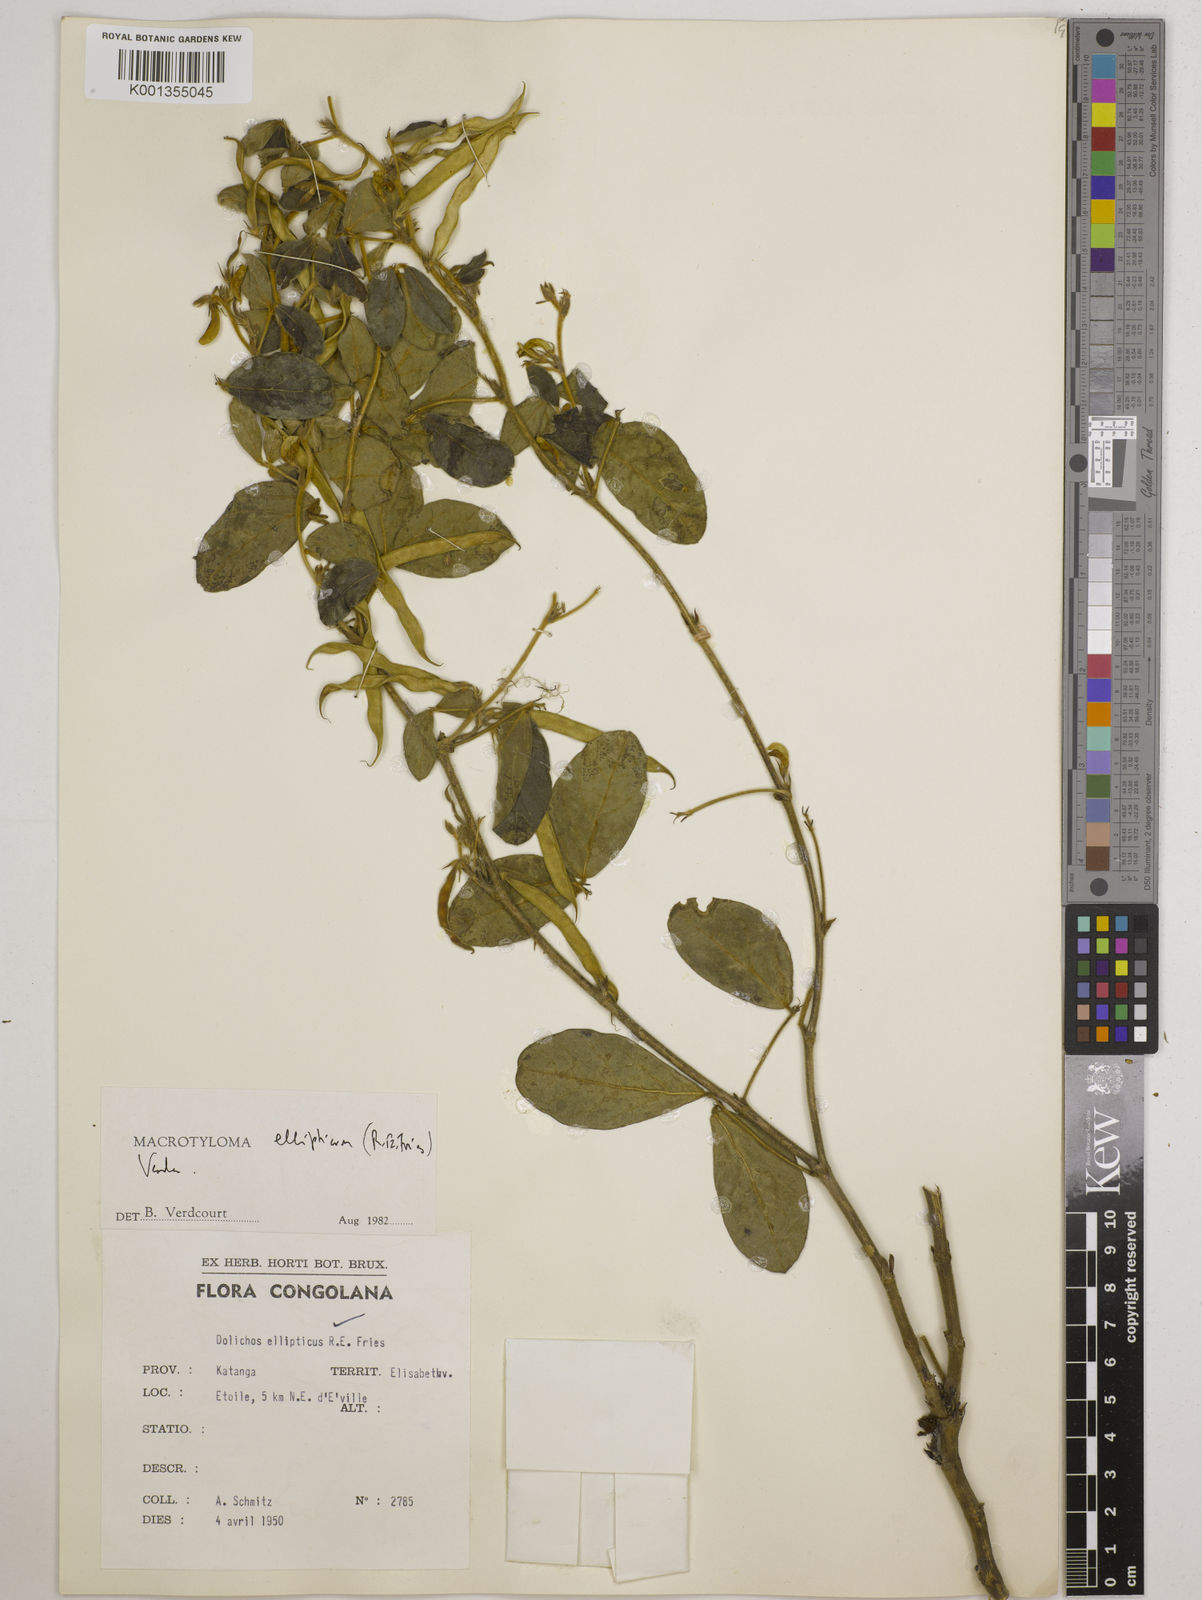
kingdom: Plantae
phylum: Tracheophyta
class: Magnoliopsida
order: Fabales
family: Fabaceae
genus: Macrotyloma
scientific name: Macrotyloma ellipticum
